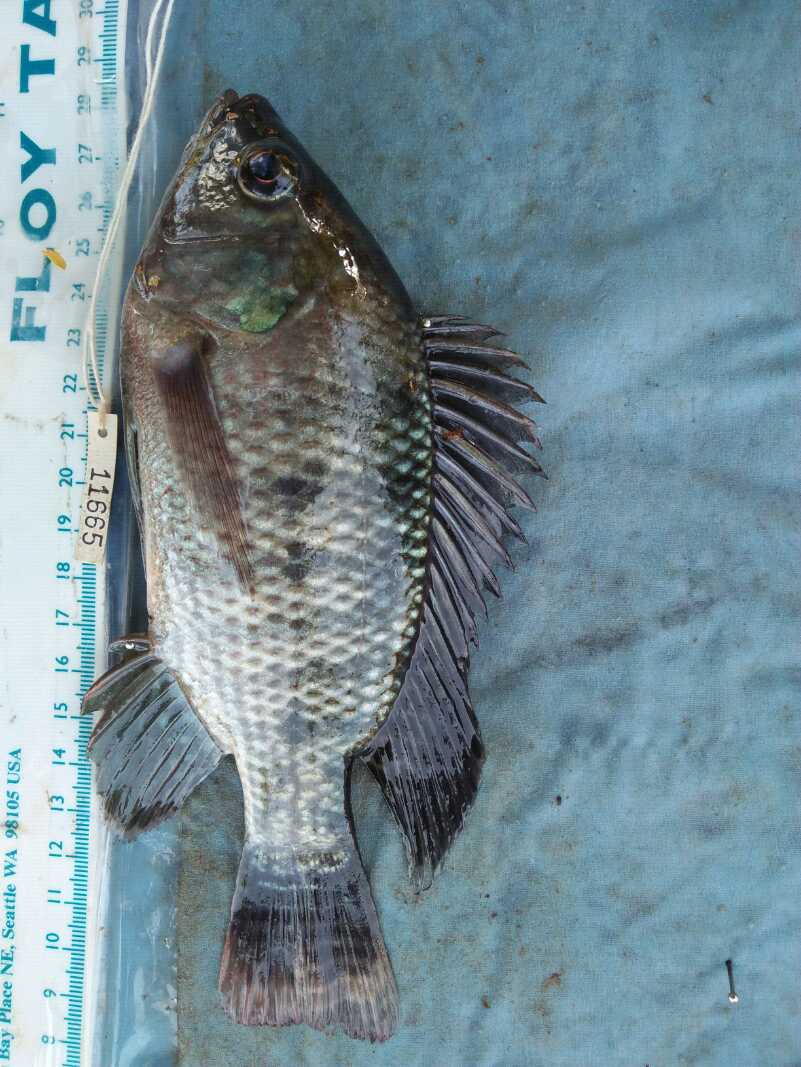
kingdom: Animalia
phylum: Chordata
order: Perciformes
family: Cichlidae
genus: Oreochromis
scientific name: Oreochromis niloticus
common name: Nile tilapia
